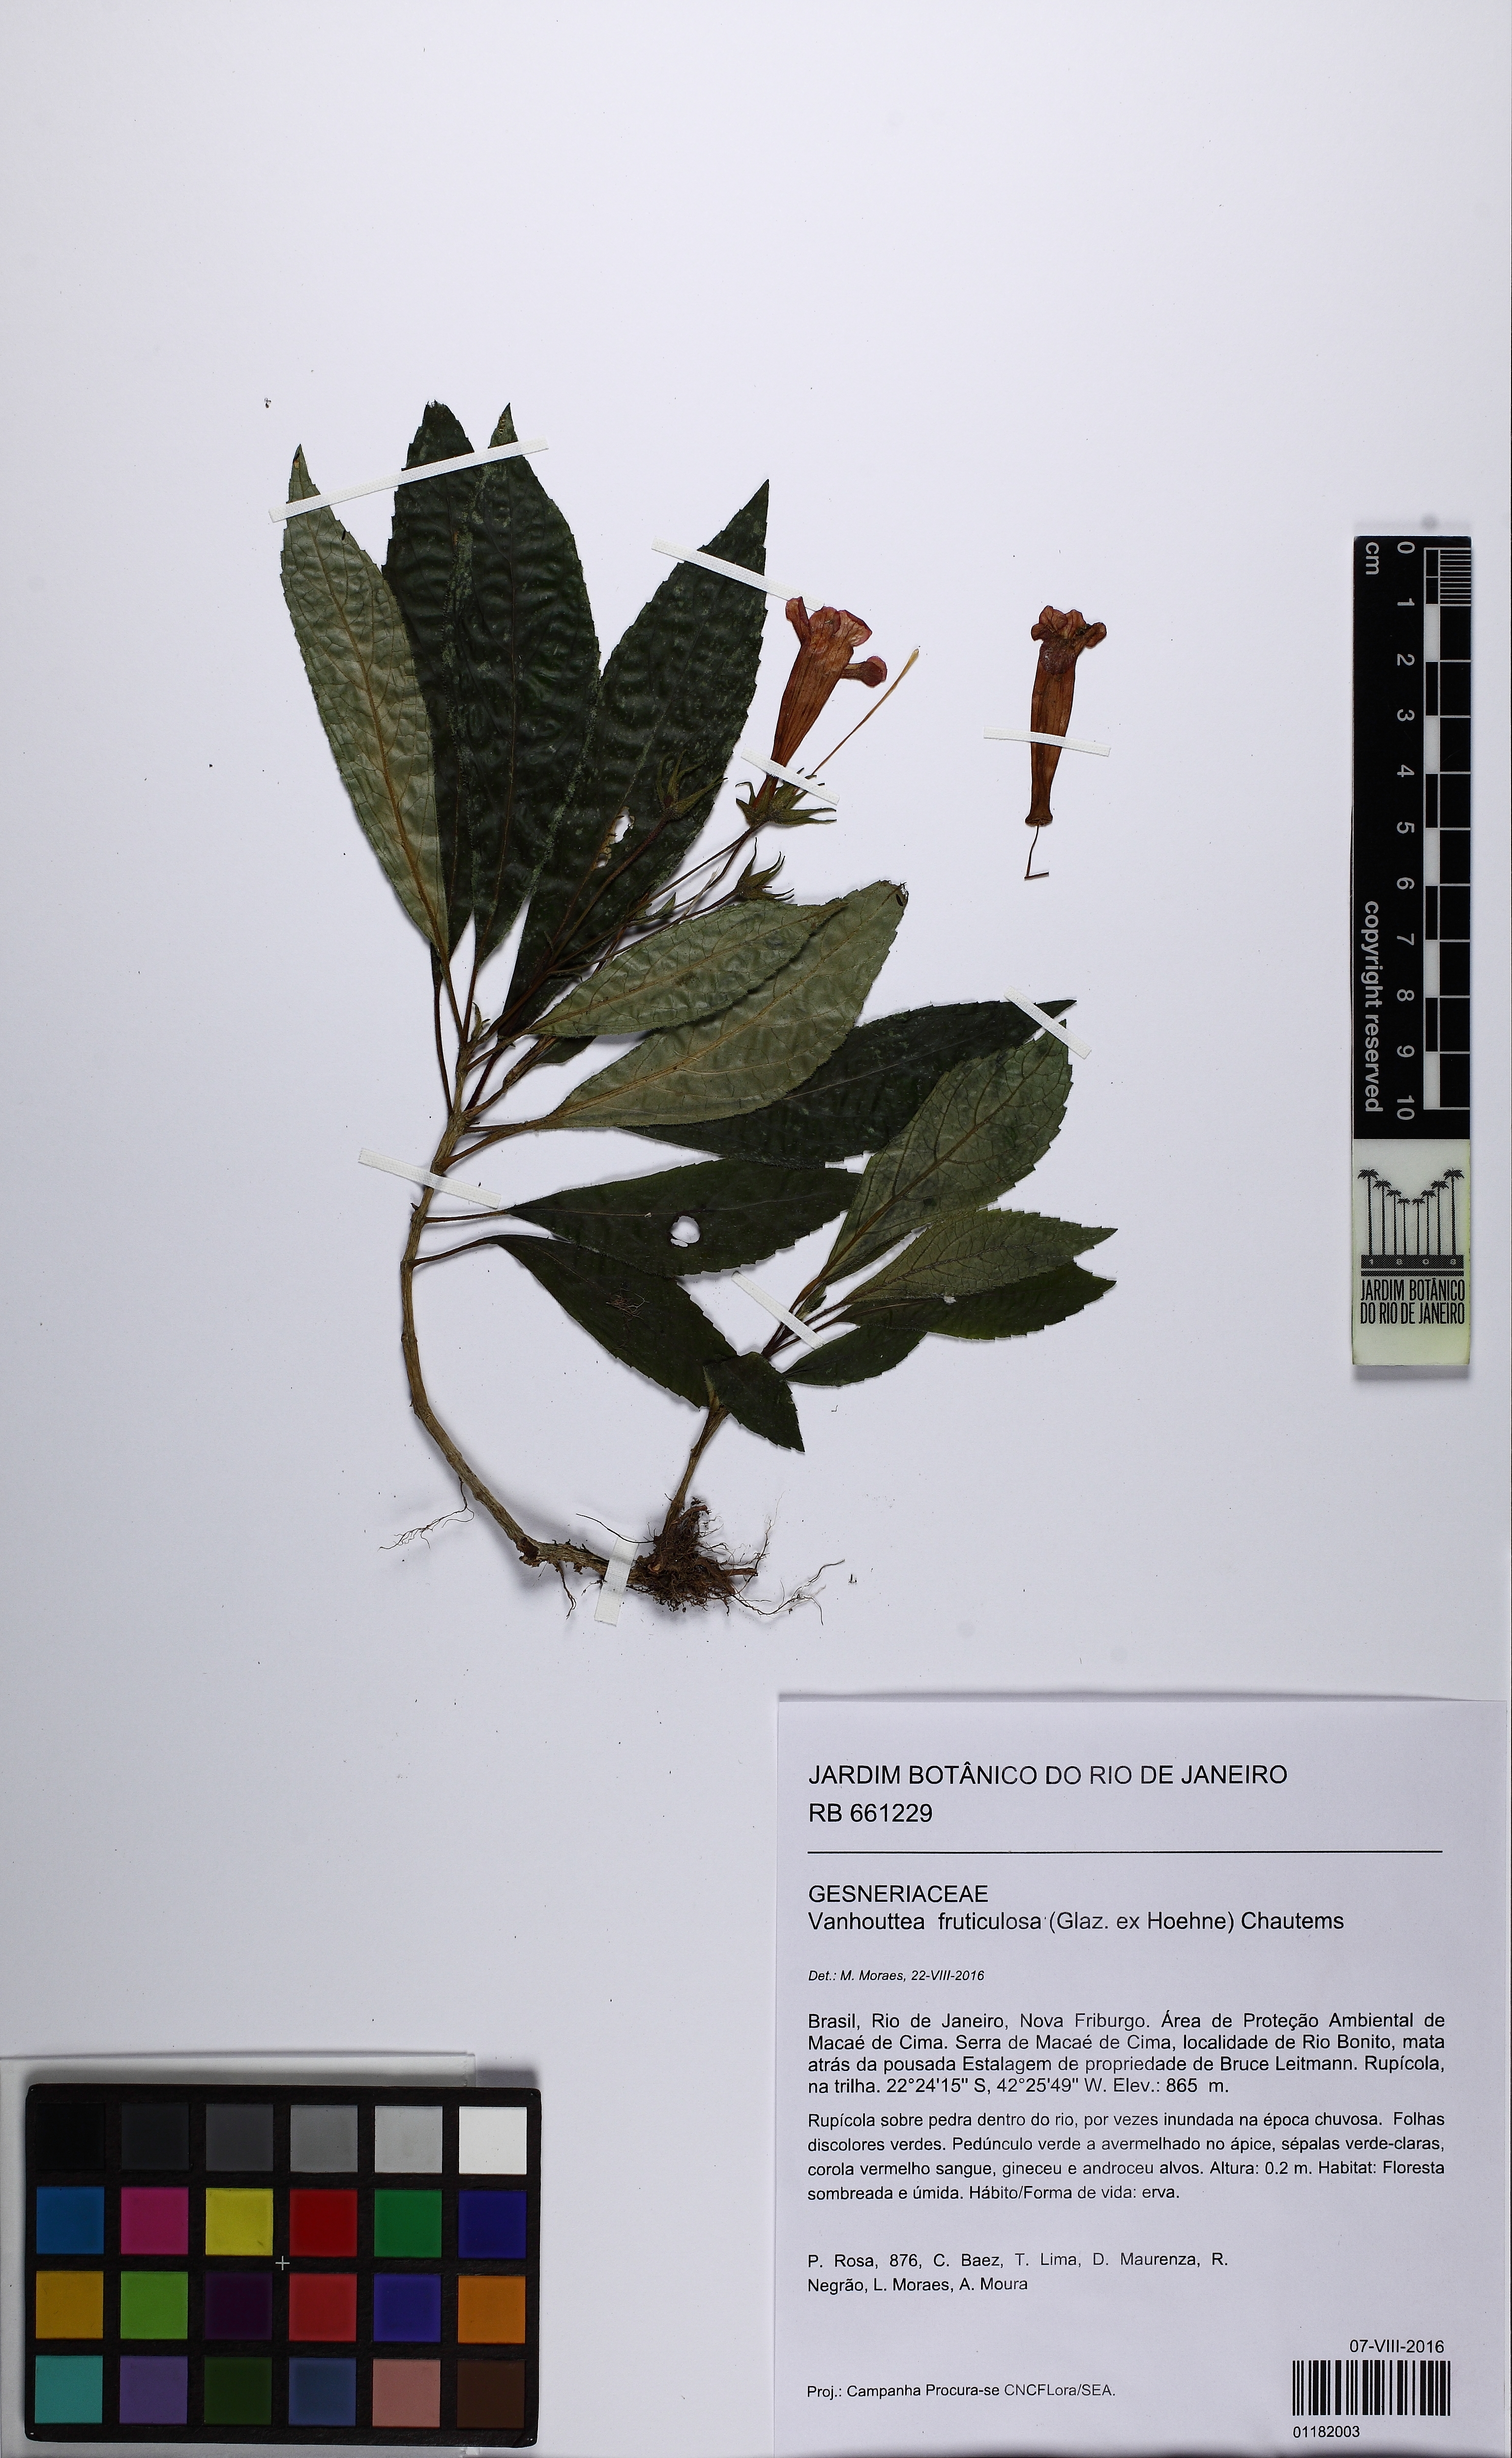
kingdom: Plantae
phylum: Tracheophyta
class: Magnoliopsida
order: Lamiales
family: Gesneriaceae
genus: Vanhouttea
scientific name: Vanhouttea fruticulosa
